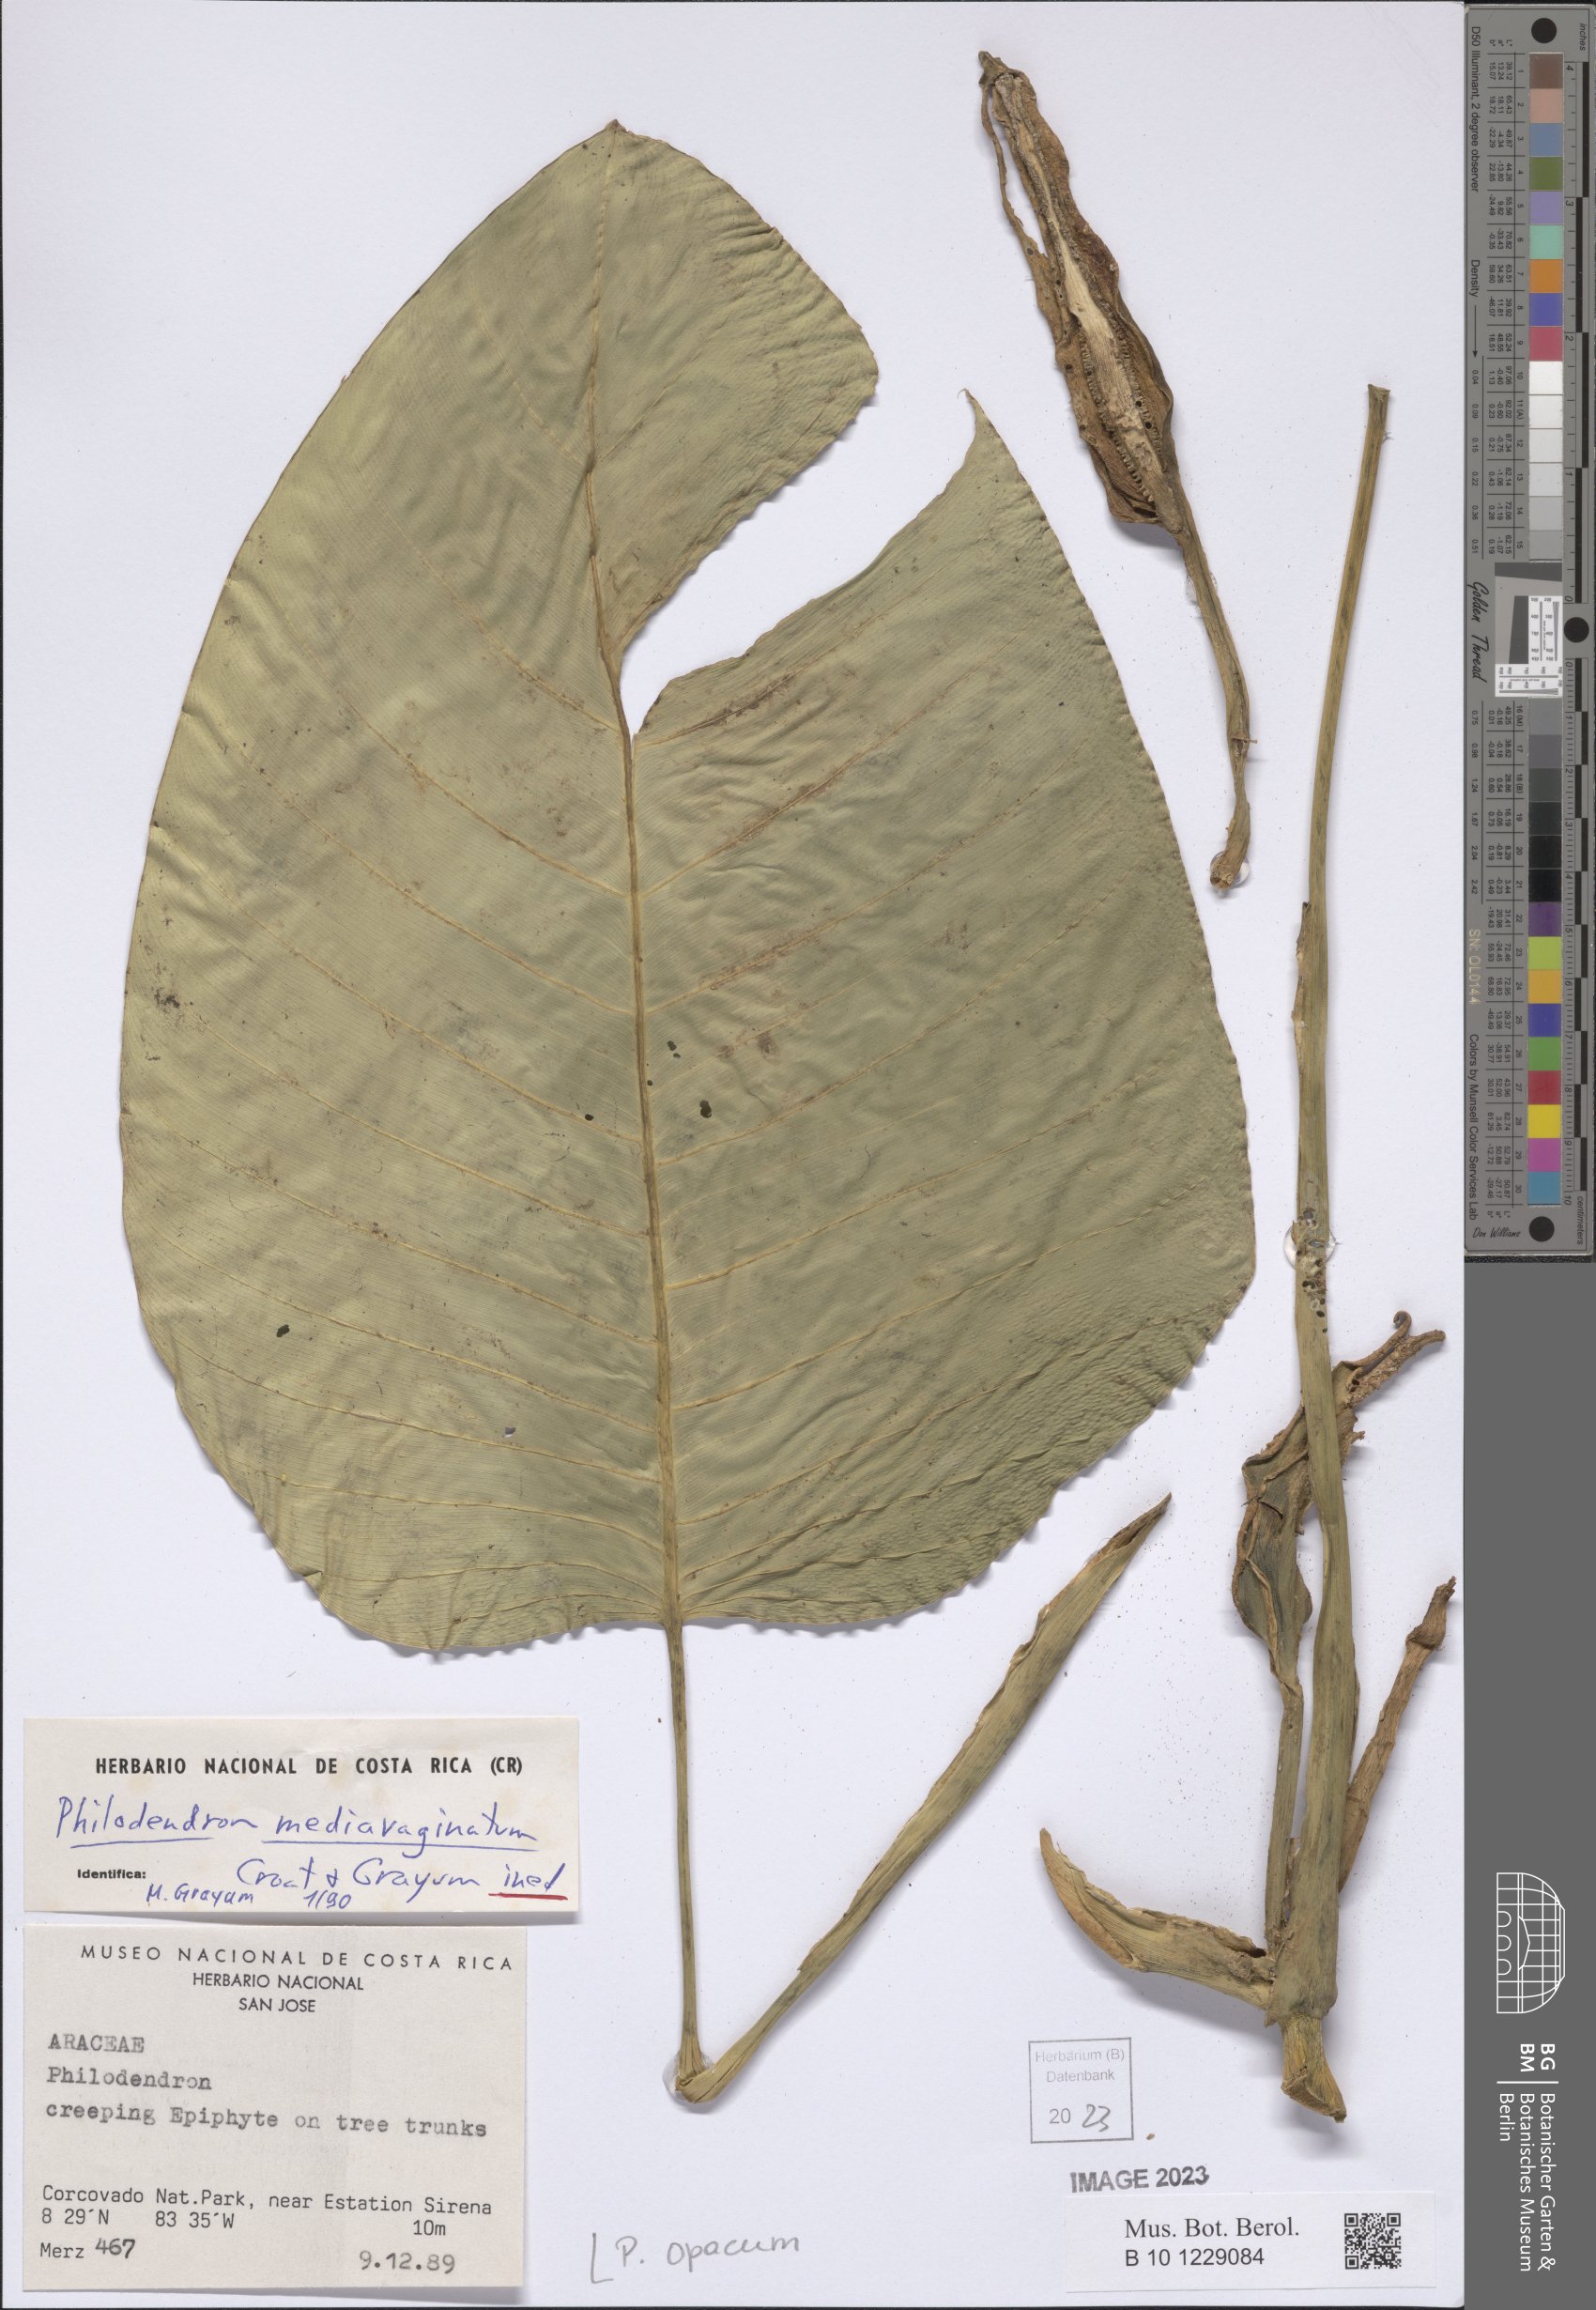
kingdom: Plantae
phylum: Tracheophyta
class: Liliopsida
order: Alismatales
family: Araceae
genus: Philodendron
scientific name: Philodendron opacum
